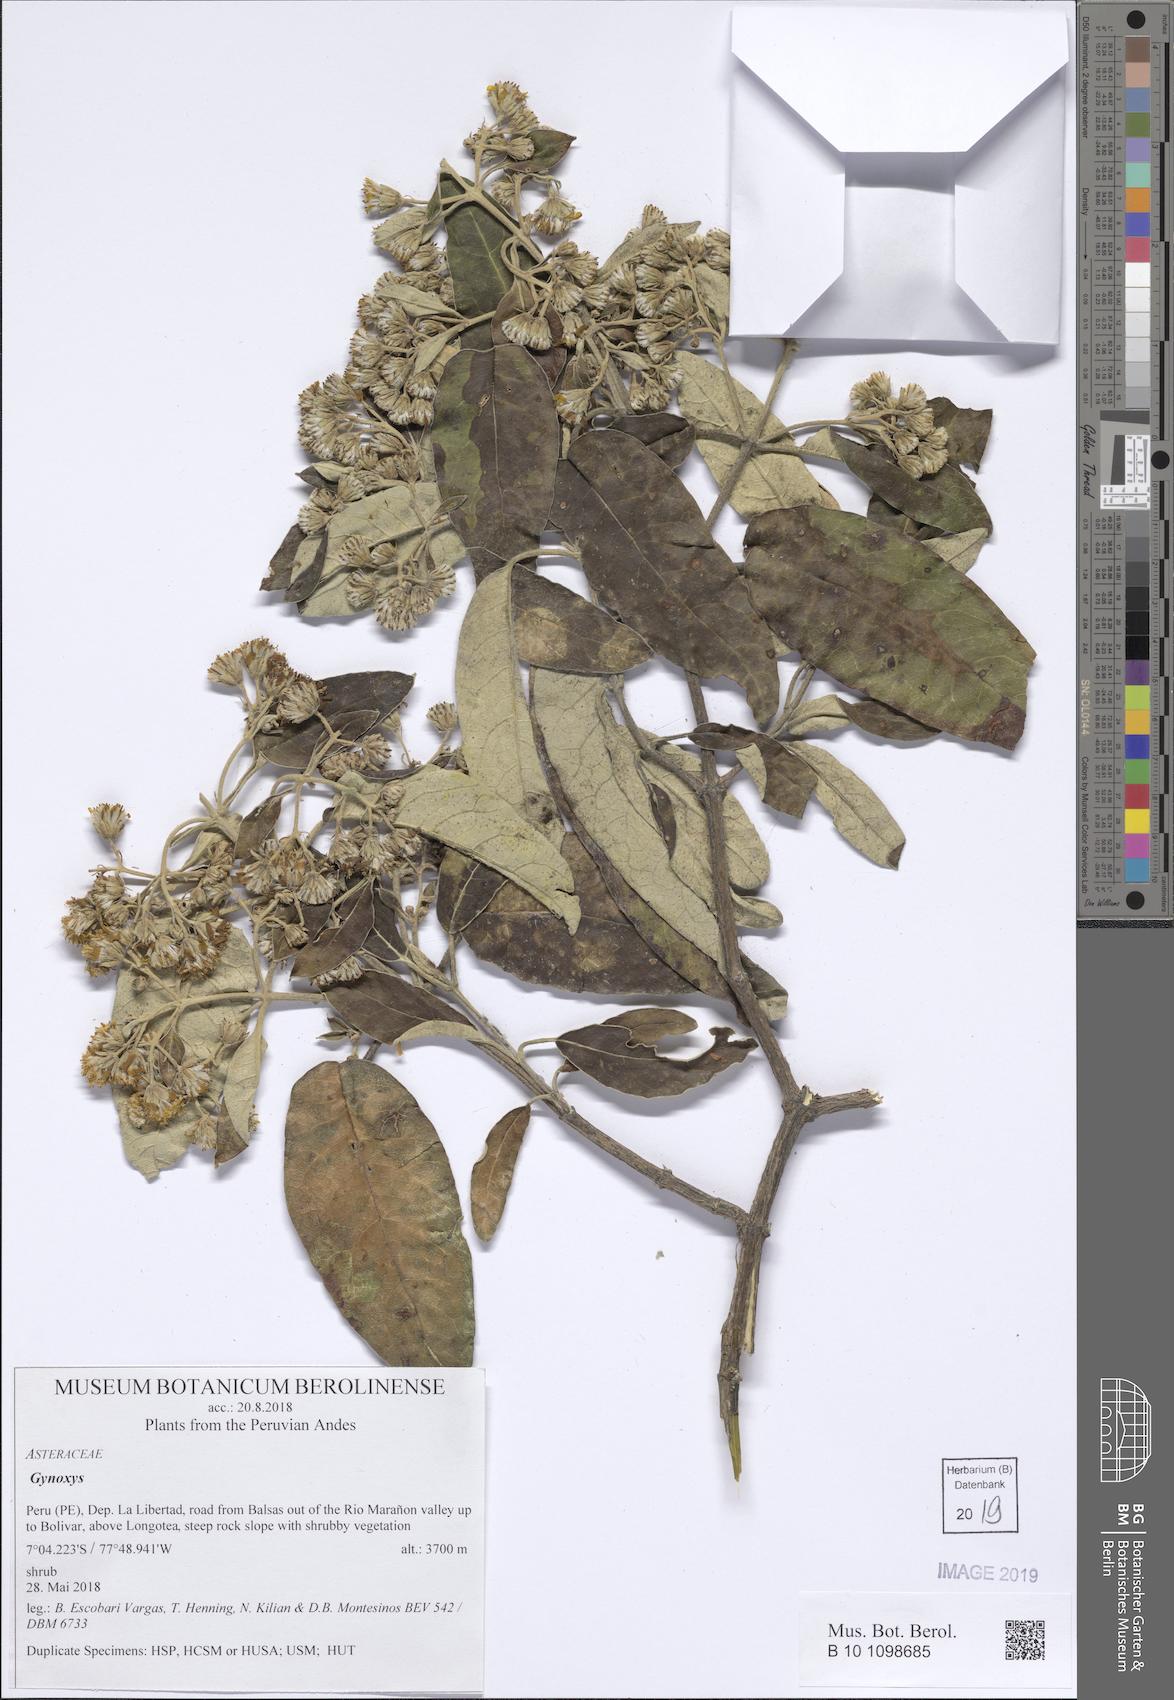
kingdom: Plantae
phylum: Tracheophyta
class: Magnoliopsida
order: Asterales
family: Asteraceae
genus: Gynoxys
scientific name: Gynoxys
